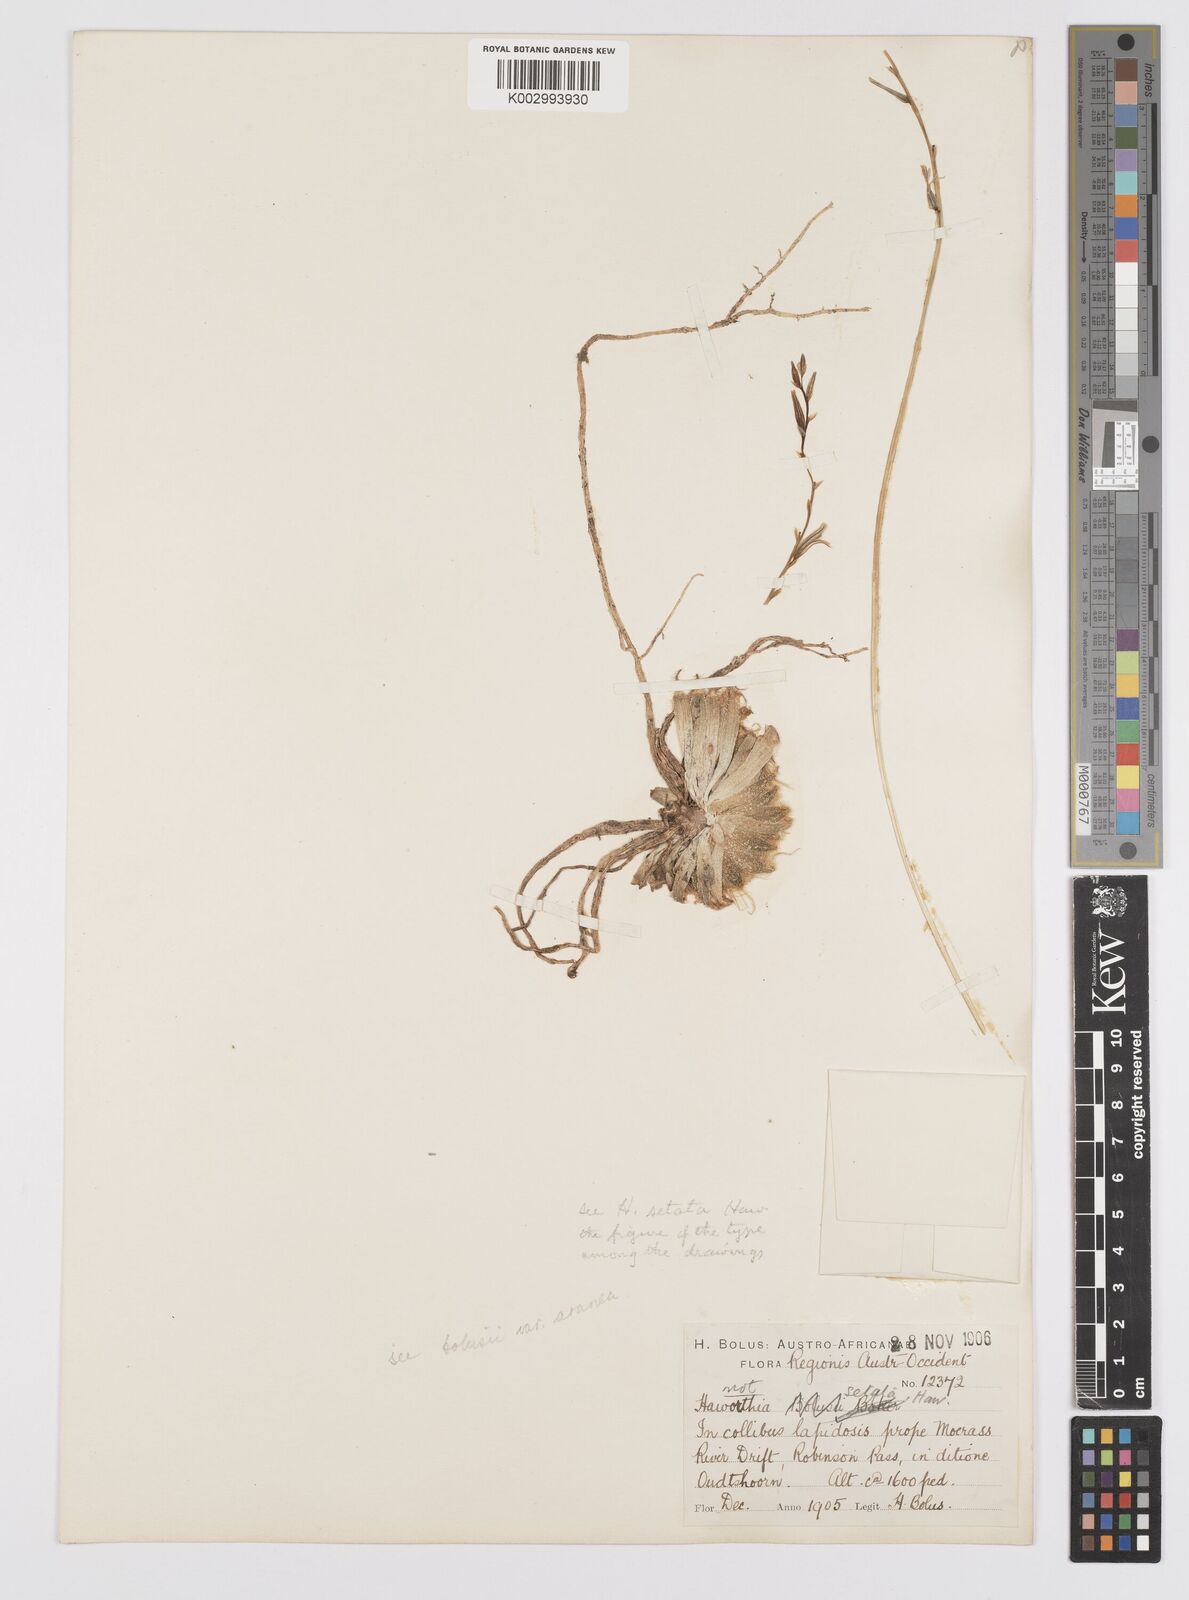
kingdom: Plantae
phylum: Tracheophyta
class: Liliopsida
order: Asparagales
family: Asphodelaceae
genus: Haworthia
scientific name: Haworthia arachnoidea
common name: Cobweb-aloe
